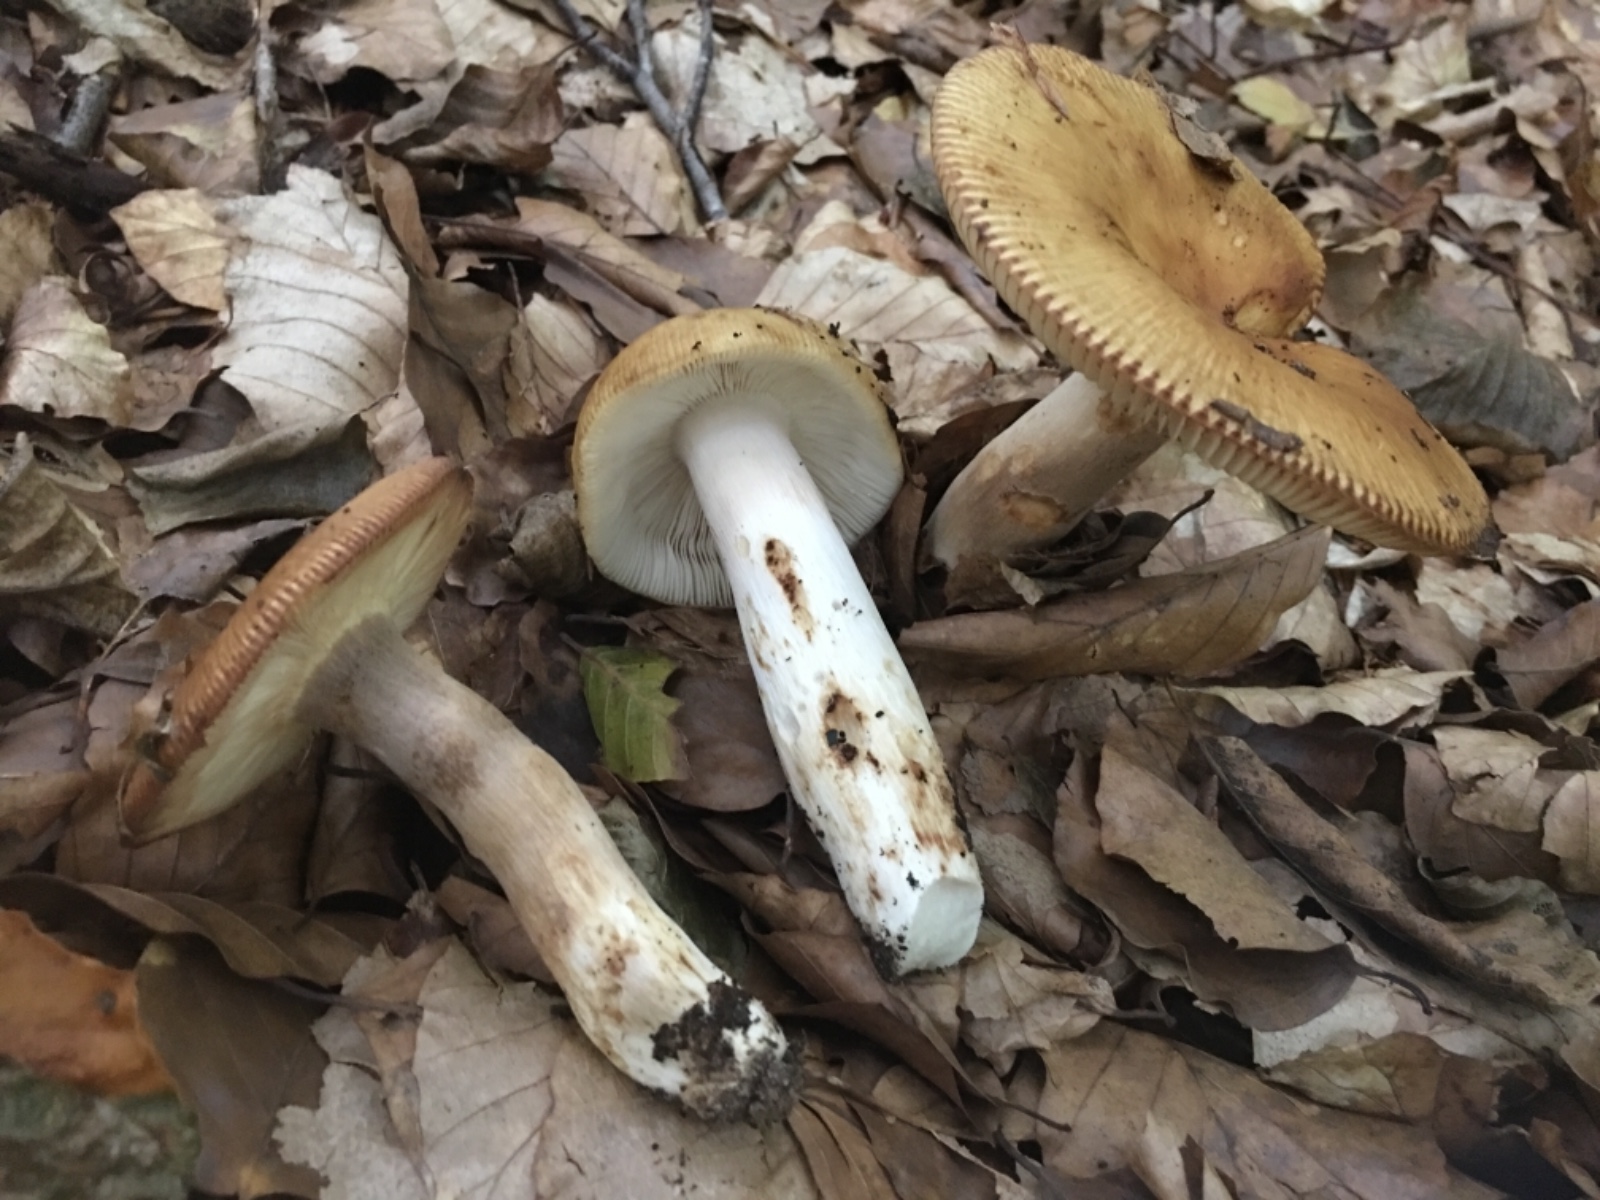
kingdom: Fungi
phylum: Basidiomycota
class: Agaricomycetes
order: Russulales
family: Russulaceae
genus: Russula
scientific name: Russula
